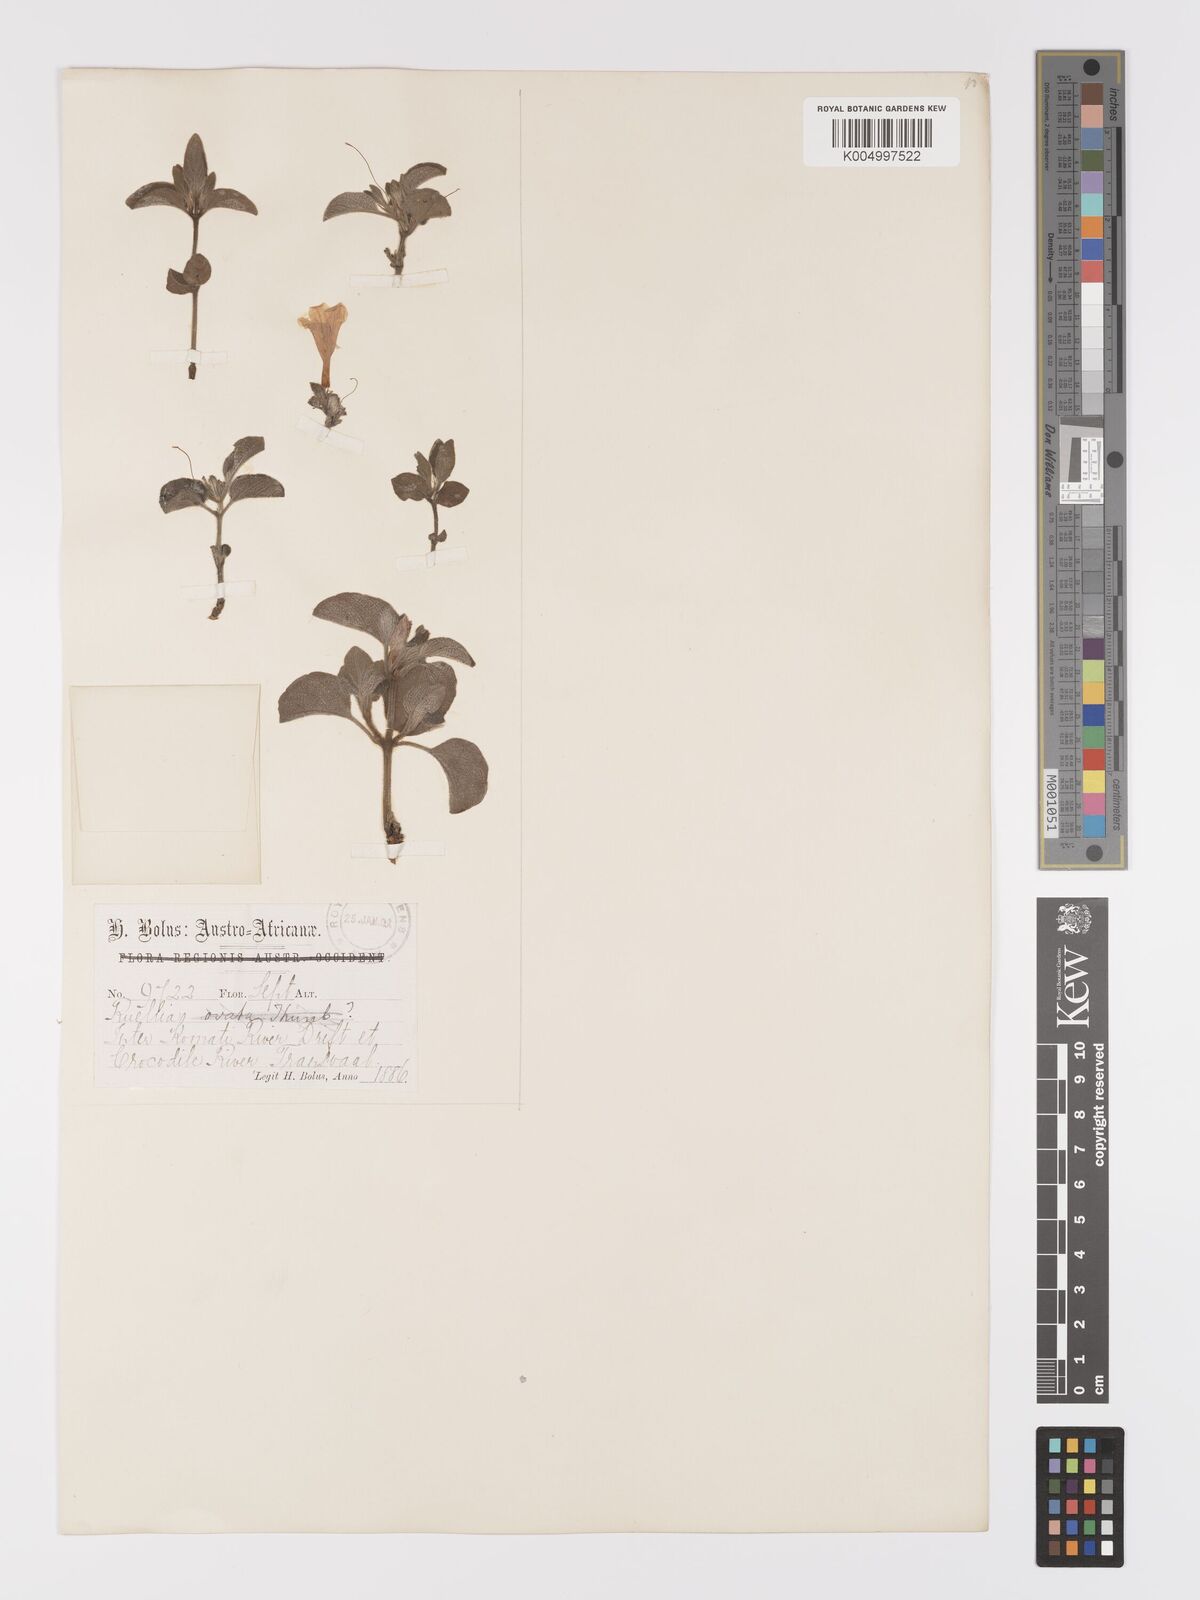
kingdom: Plantae
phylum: Tracheophyta
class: Magnoliopsida
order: Lamiales
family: Acanthaceae
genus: Ruellia
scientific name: Ruellia
